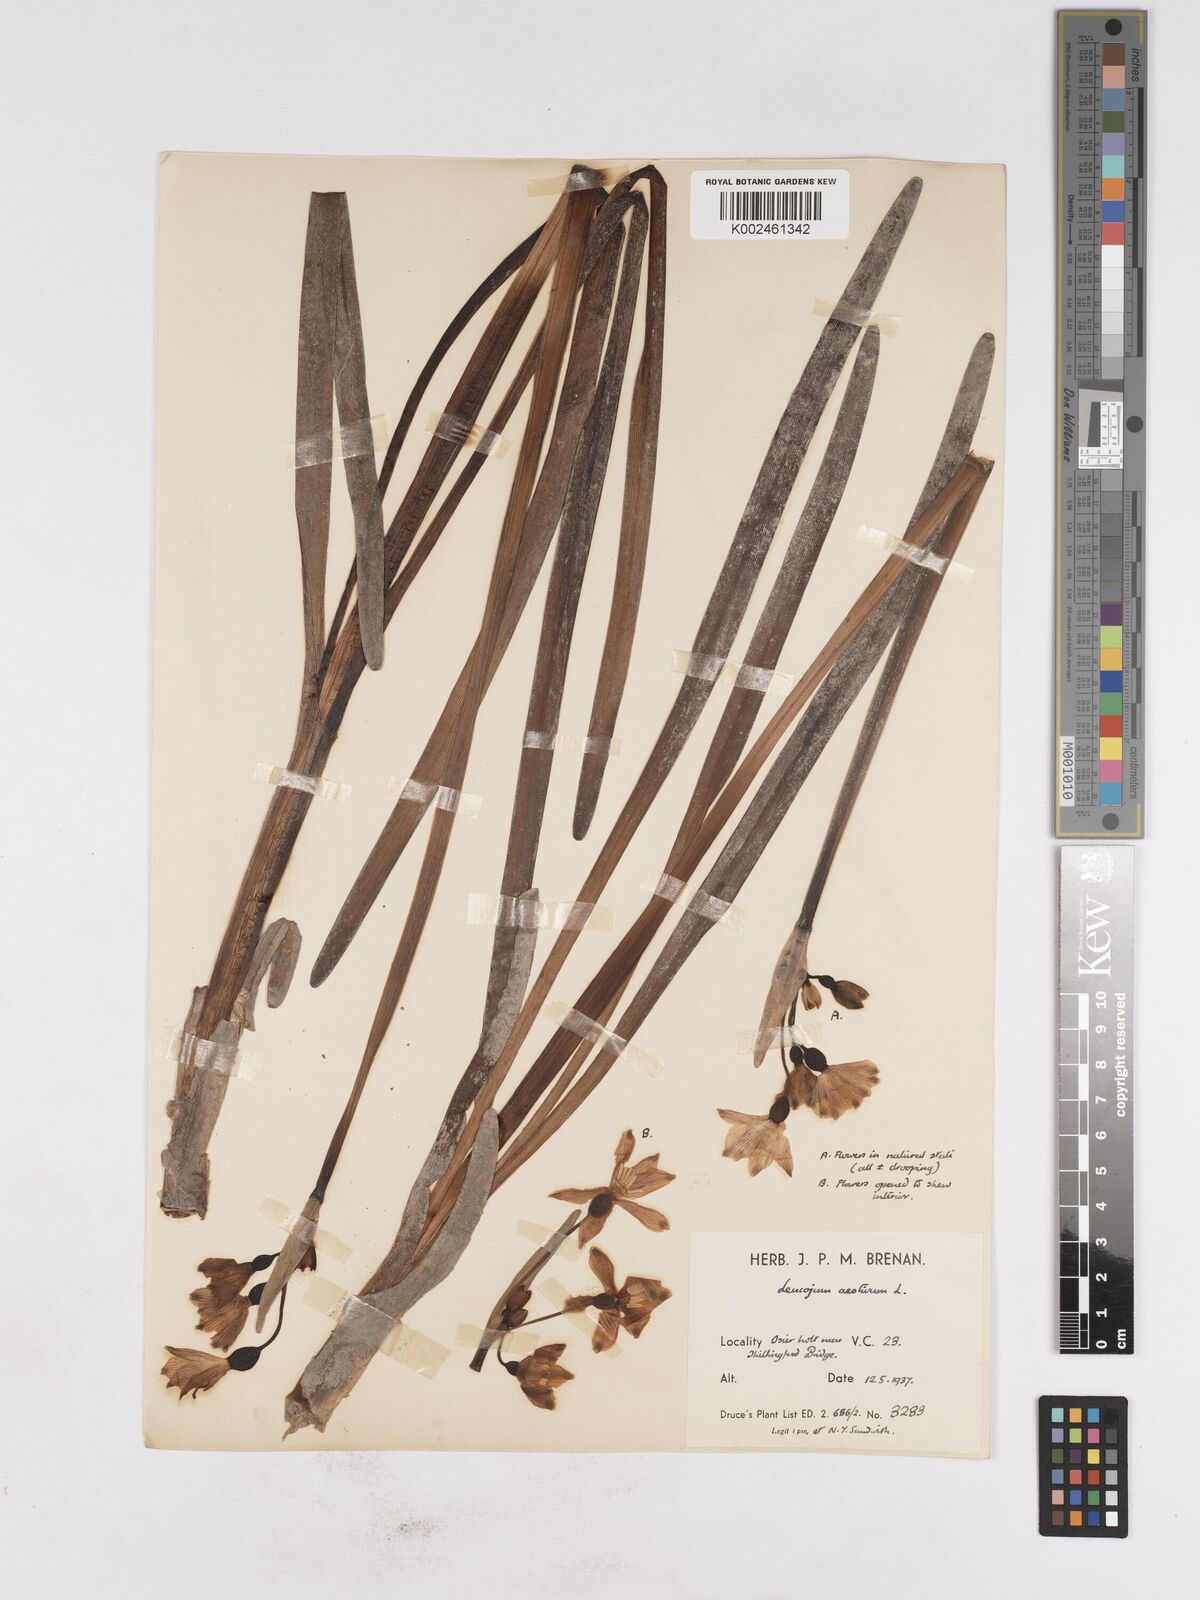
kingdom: Plantae
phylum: Tracheophyta
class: Liliopsida
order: Asparagales
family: Amaryllidaceae
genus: Leucojum
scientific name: Leucojum aestivum
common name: Summer snowflake
